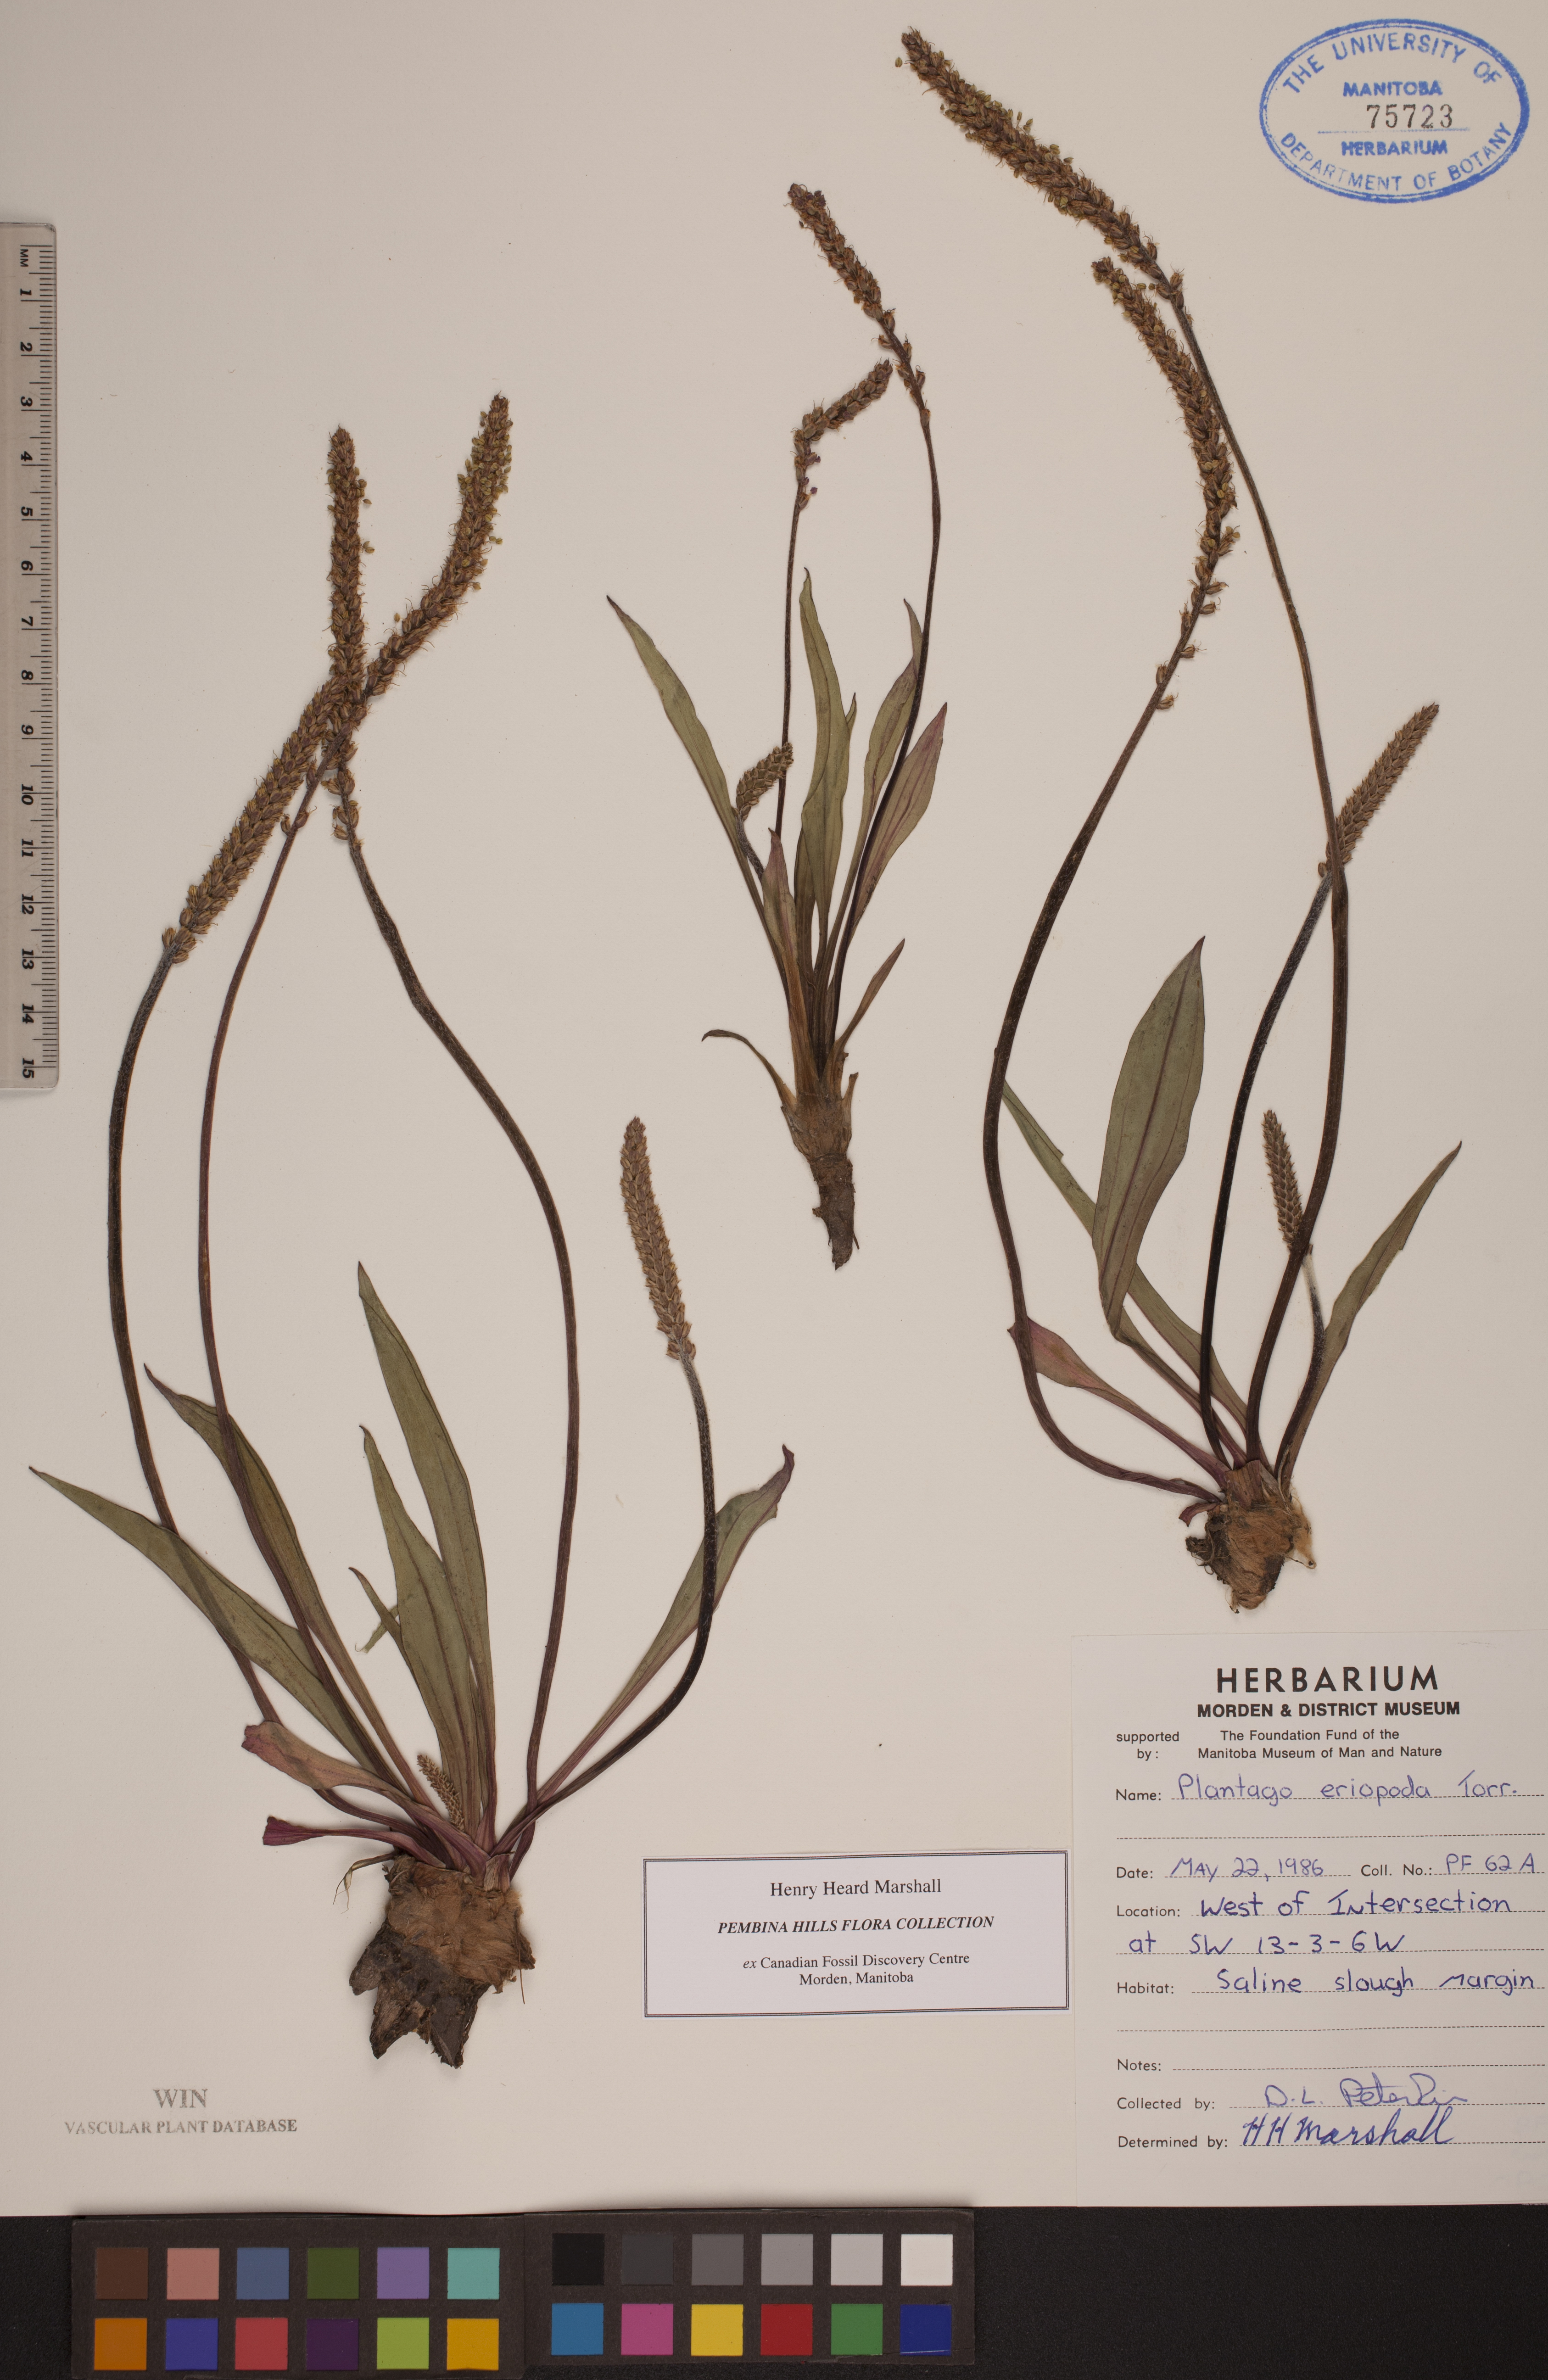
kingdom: Plantae
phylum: Tracheophyta
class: Magnoliopsida
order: Lamiales
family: Plantaginaceae
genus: Plantago
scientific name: Plantago eriopoda
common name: Alkali plantain
